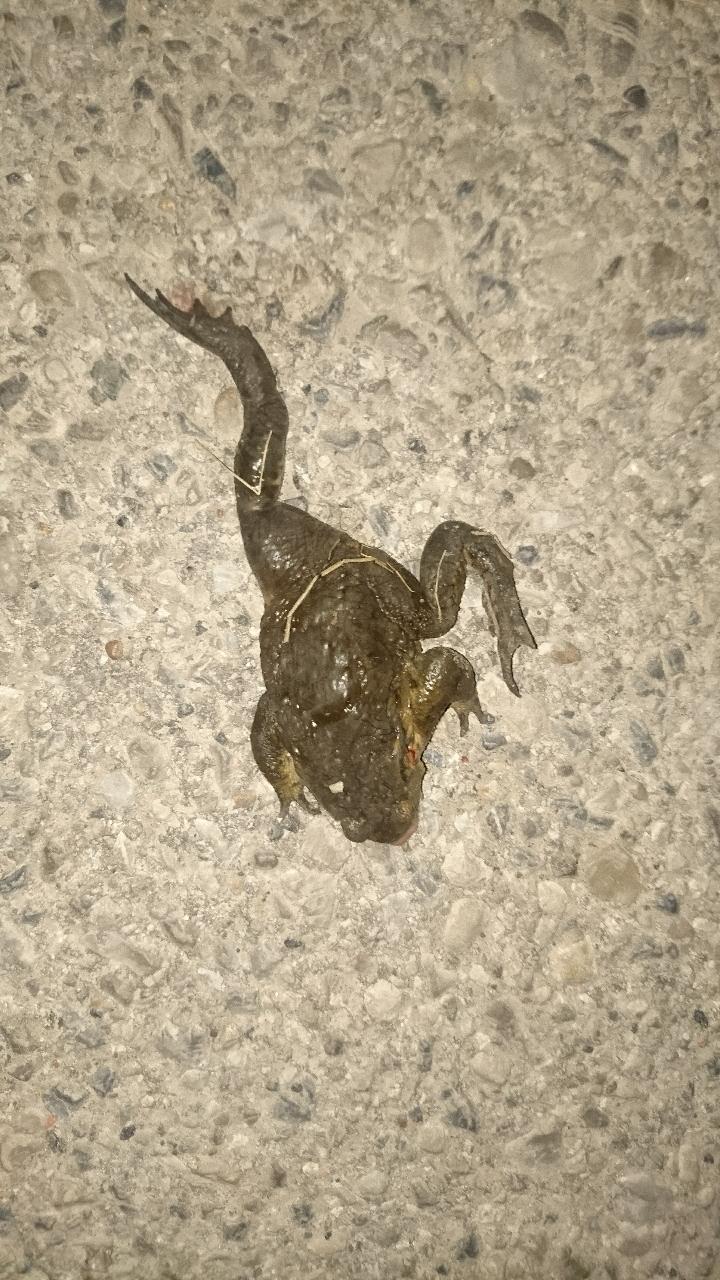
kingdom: Animalia
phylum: Chordata
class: Amphibia
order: Anura
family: Bufonidae
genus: Bufo
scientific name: Bufo bufo
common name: Common toad
